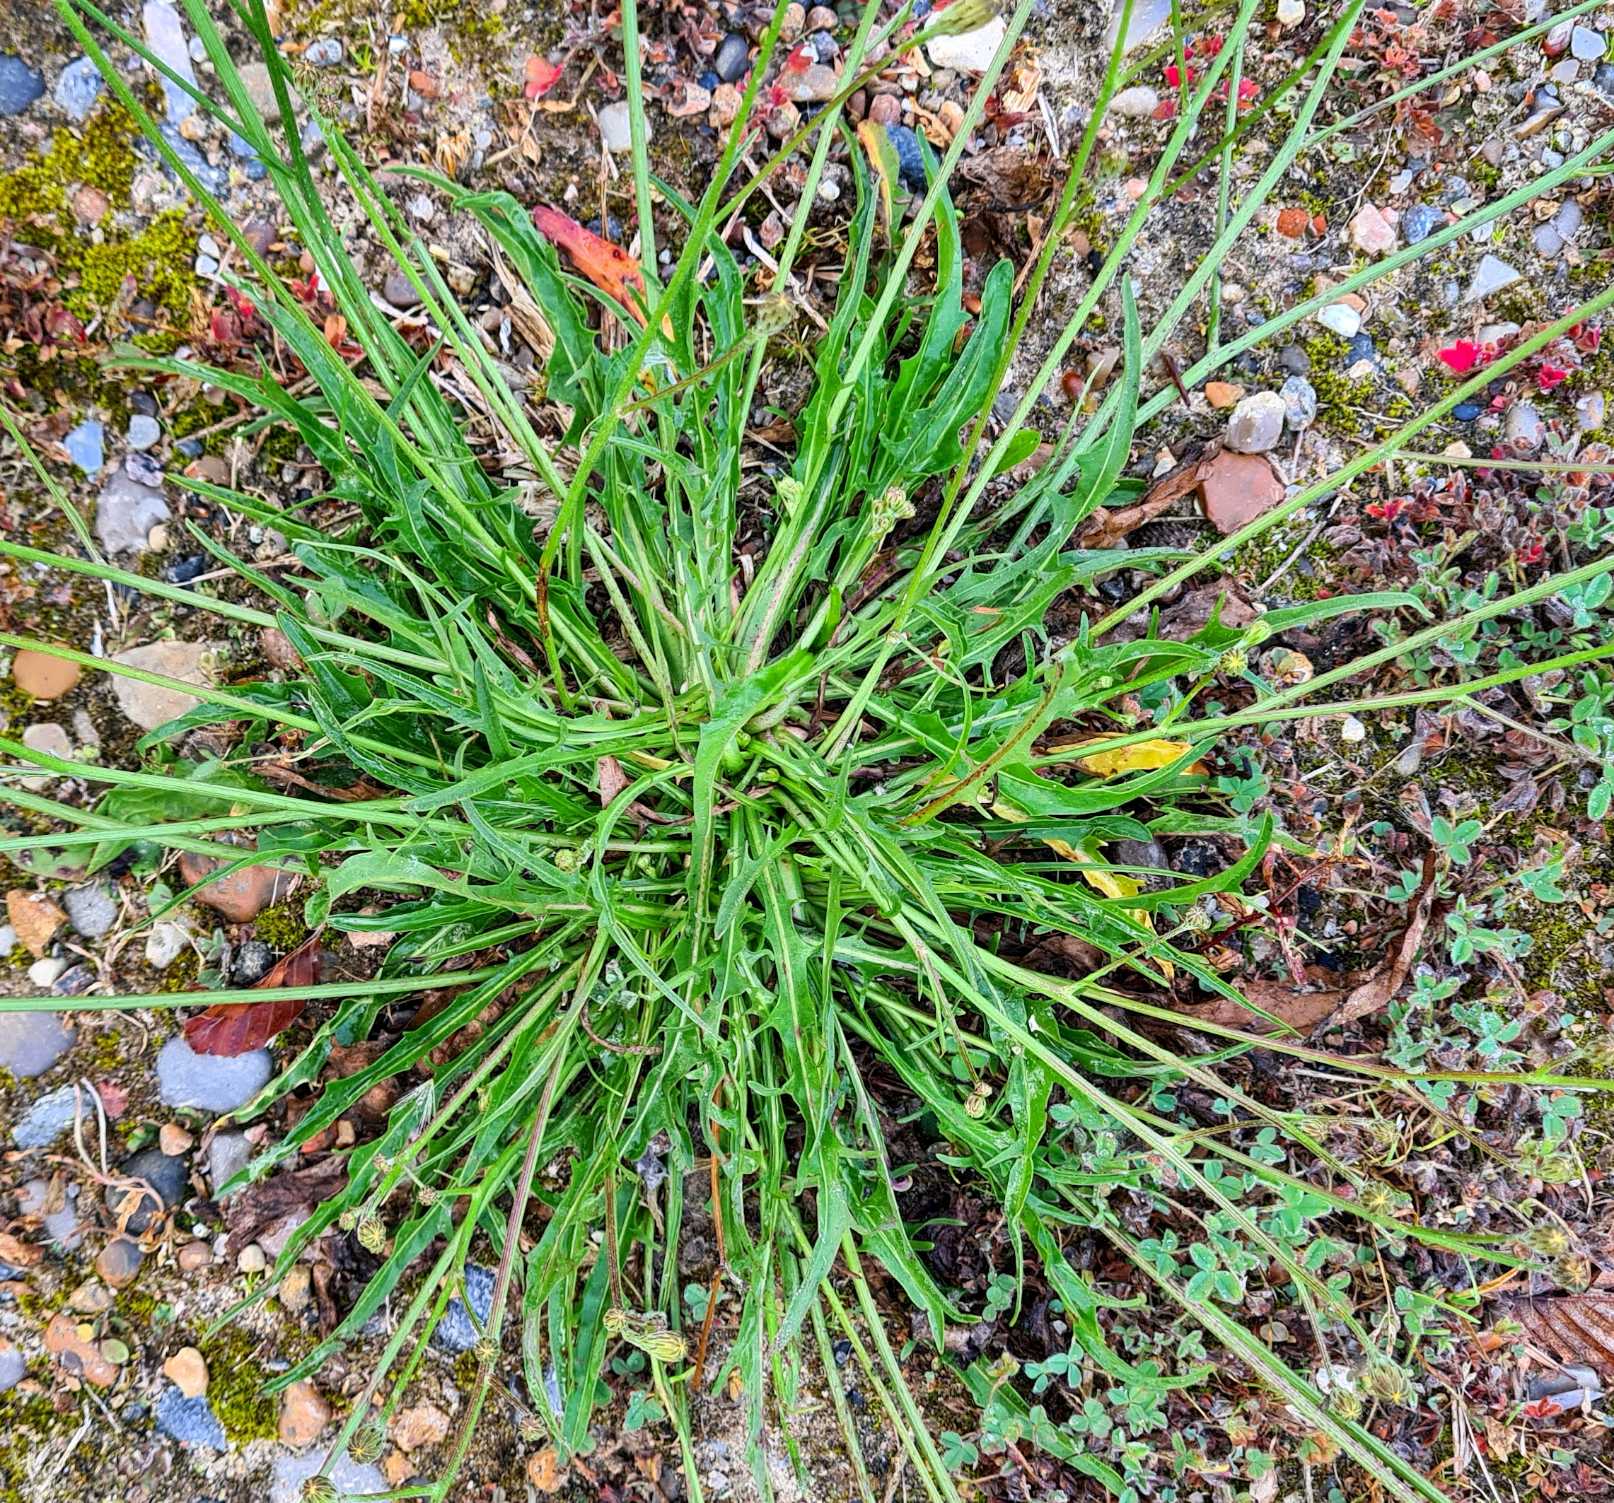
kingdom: Plantae
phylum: Tracheophyta
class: Magnoliopsida
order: Asterales
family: Asteraceae
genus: Scorzoneroides
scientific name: Scorzoneroides autumnalis
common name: Høst-borst
